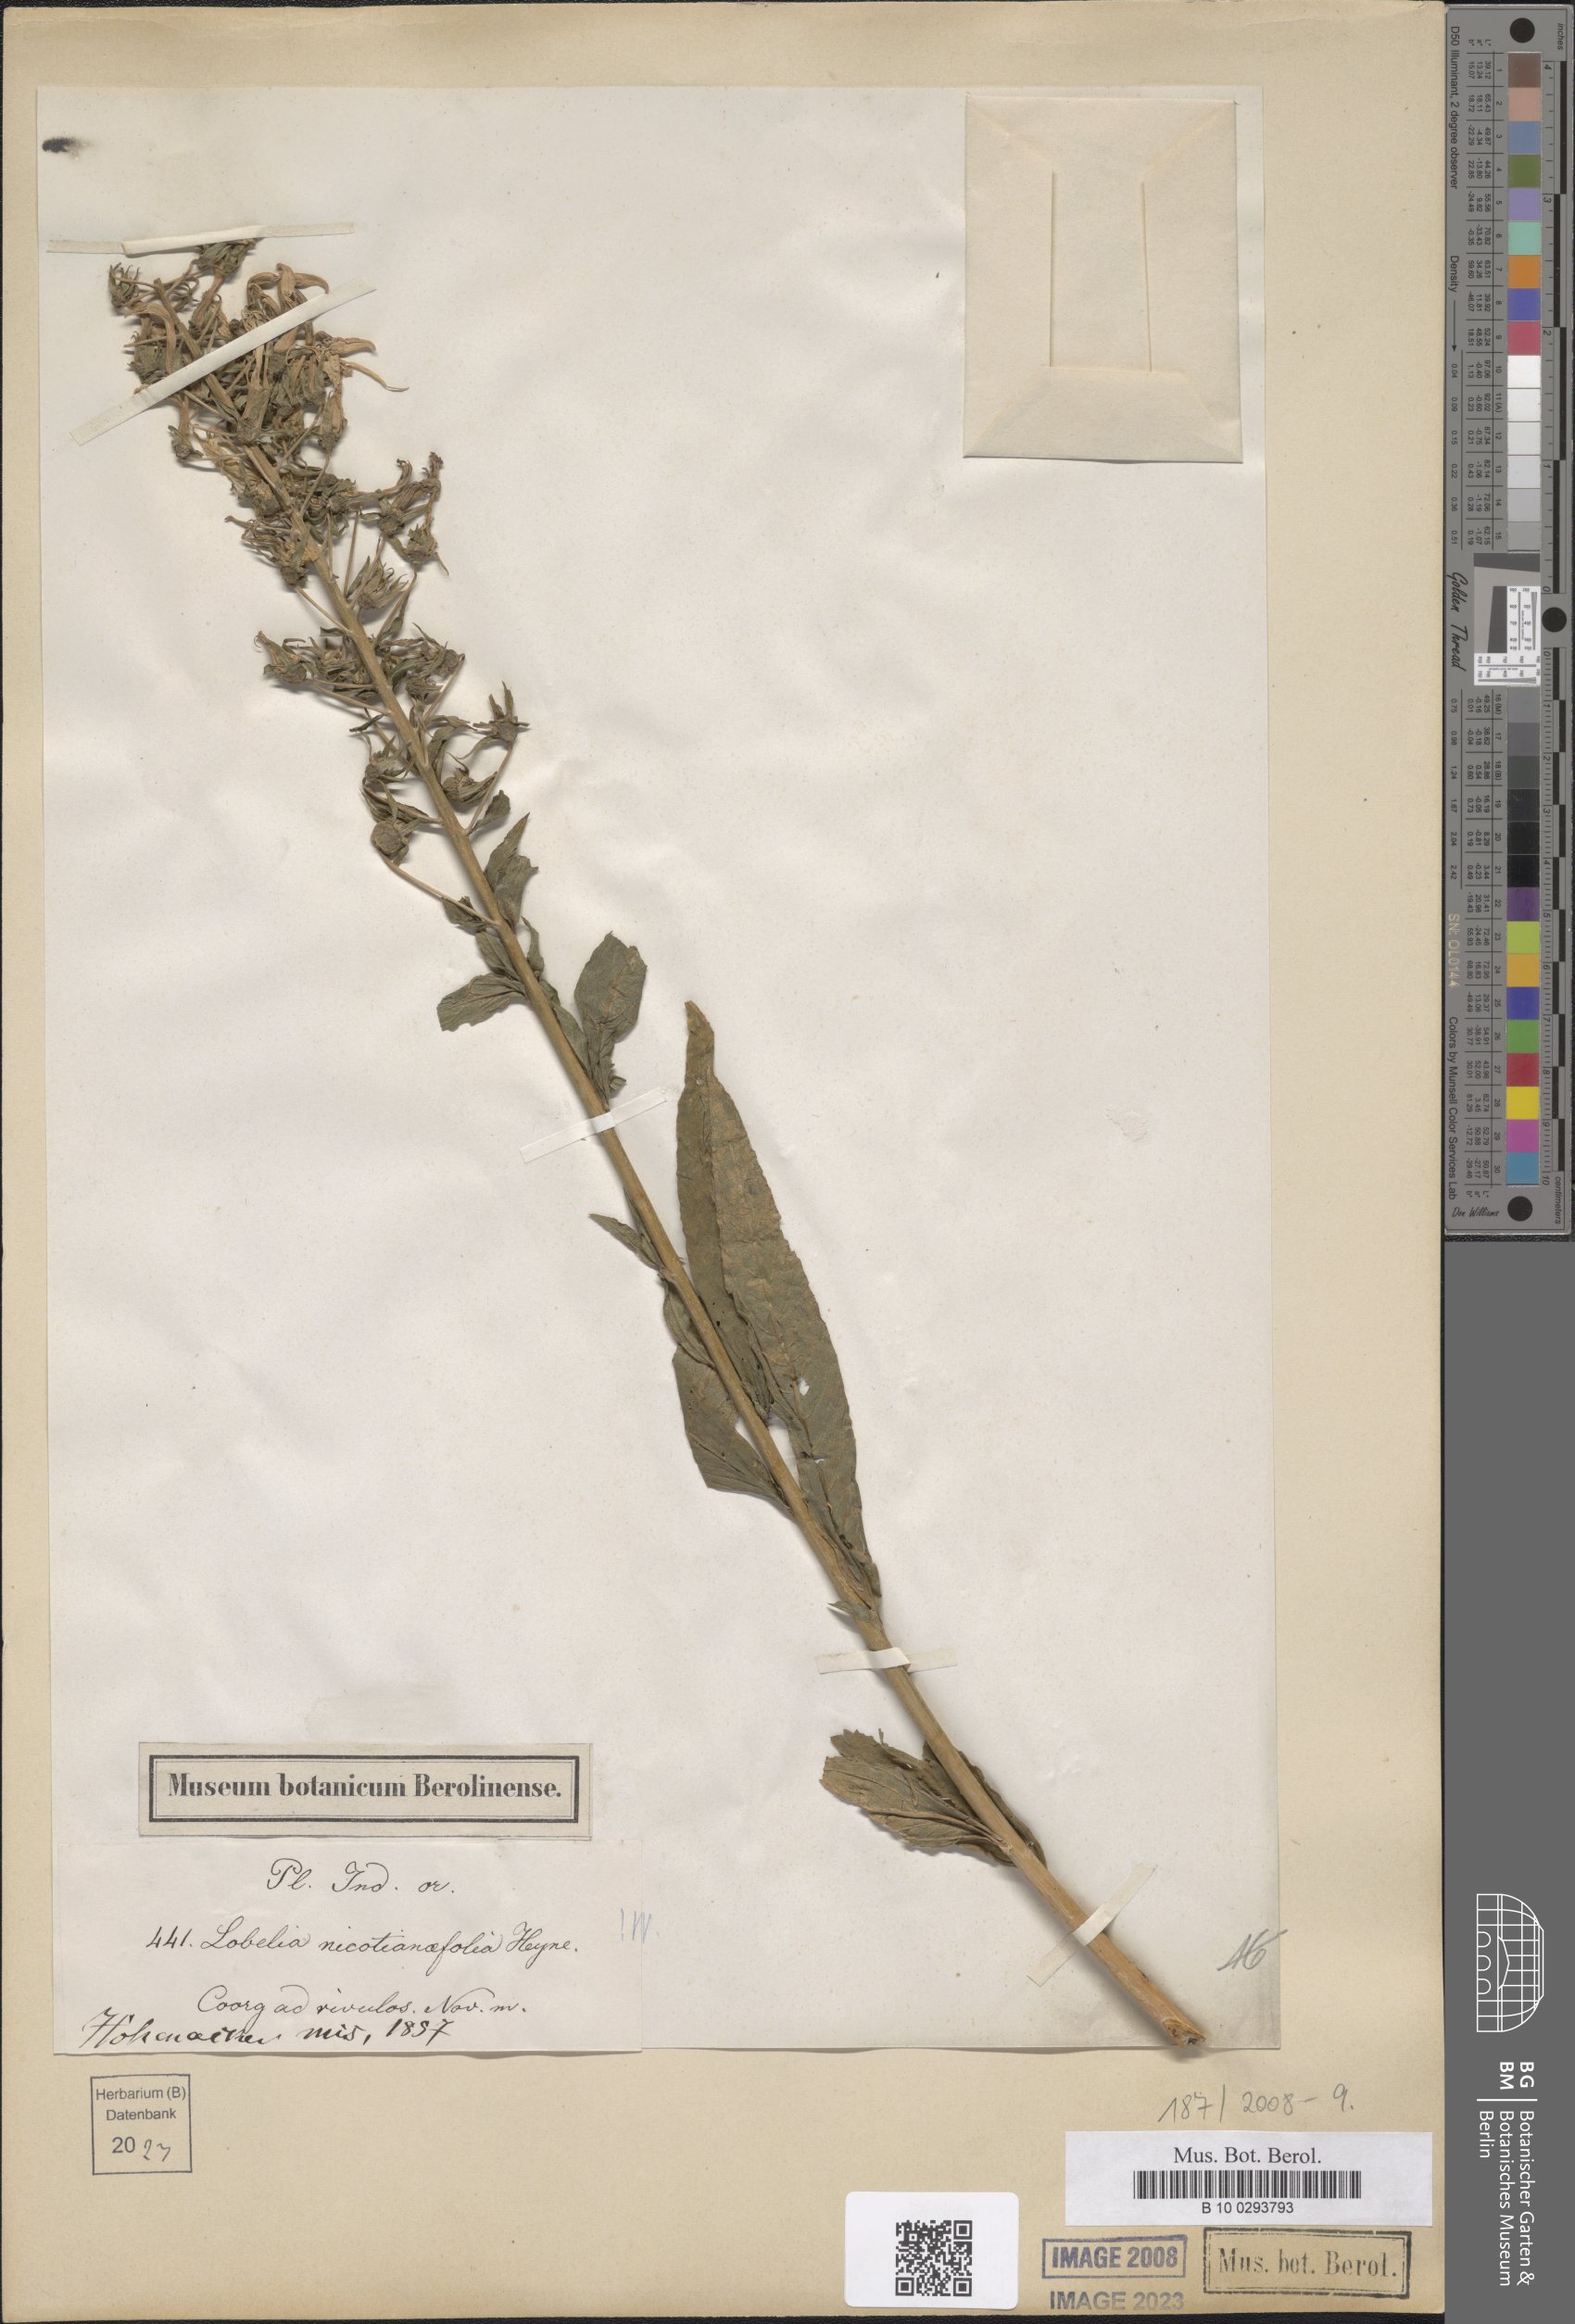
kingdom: Plantae
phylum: Tracheophyta
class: Magnoliopsida
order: Asterales
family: Campanulaceae
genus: Lobelia
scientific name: Lobelia nicotianifolia
